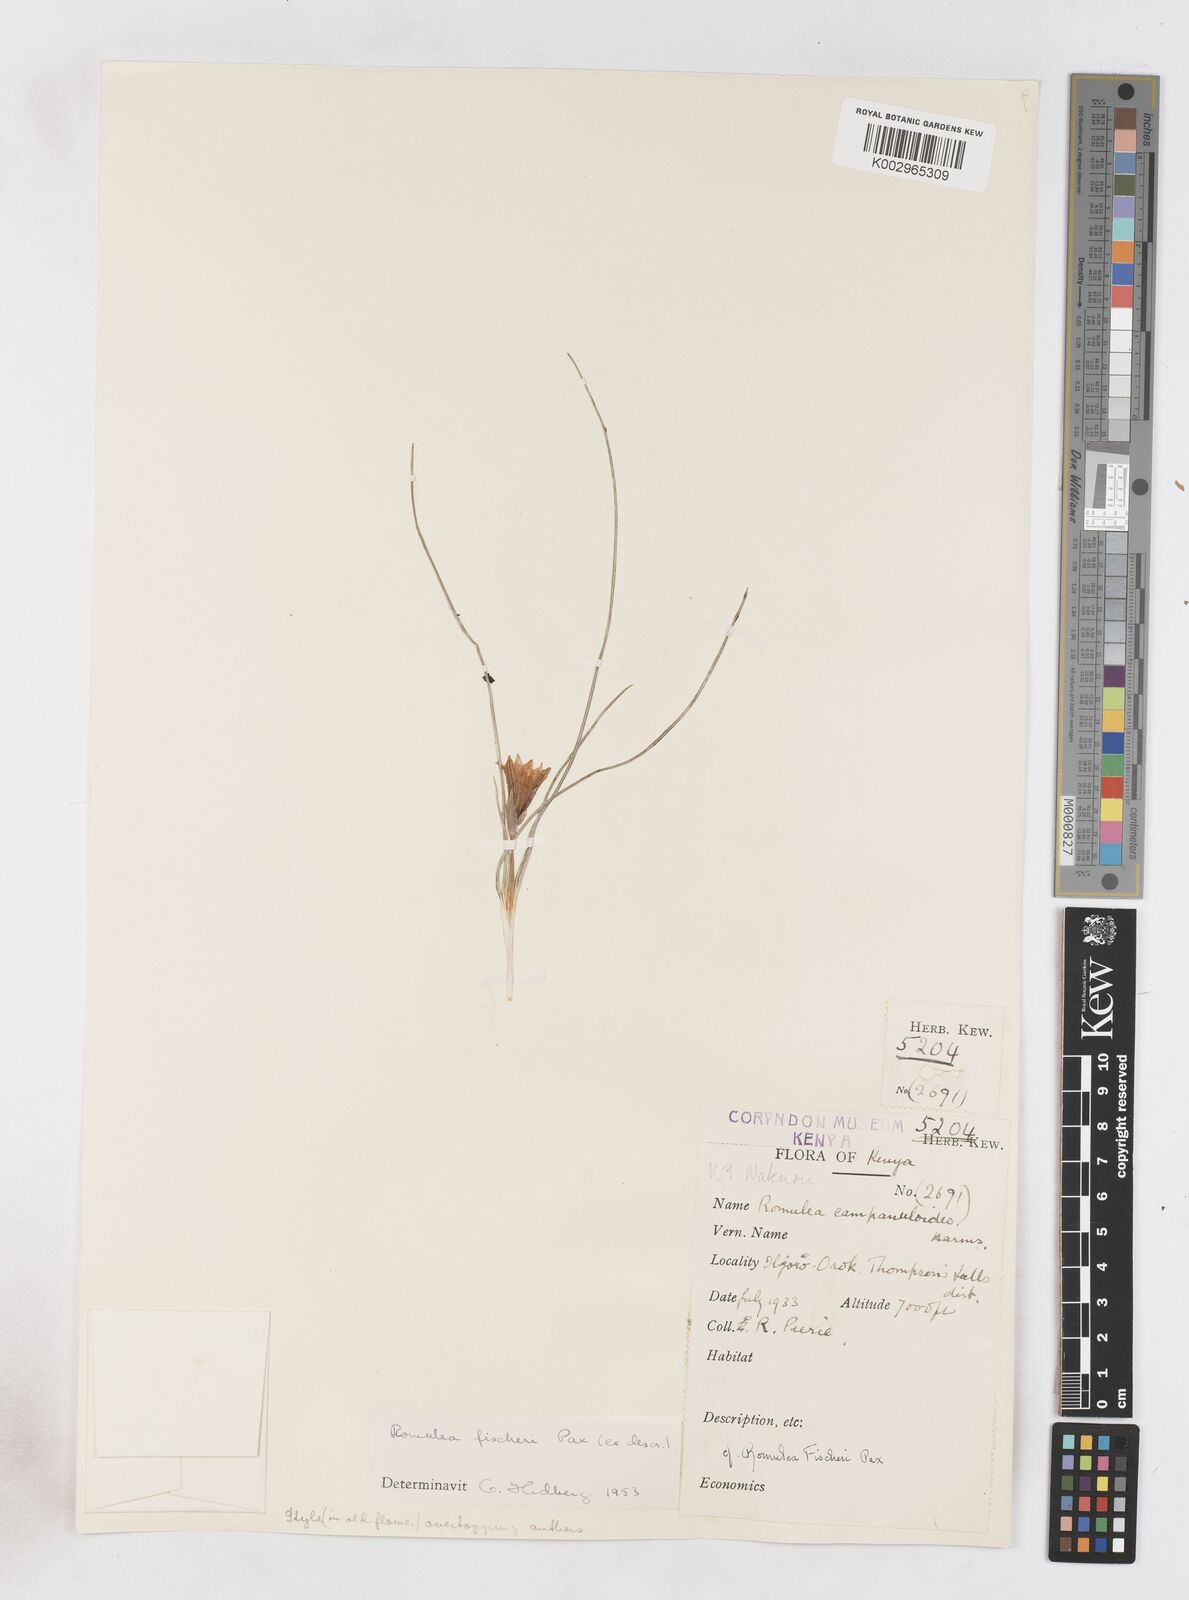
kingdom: Plantae
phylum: Tracheophyta
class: Liliopsida
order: Asparagales
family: Iridaceae
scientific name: Iridaceae
